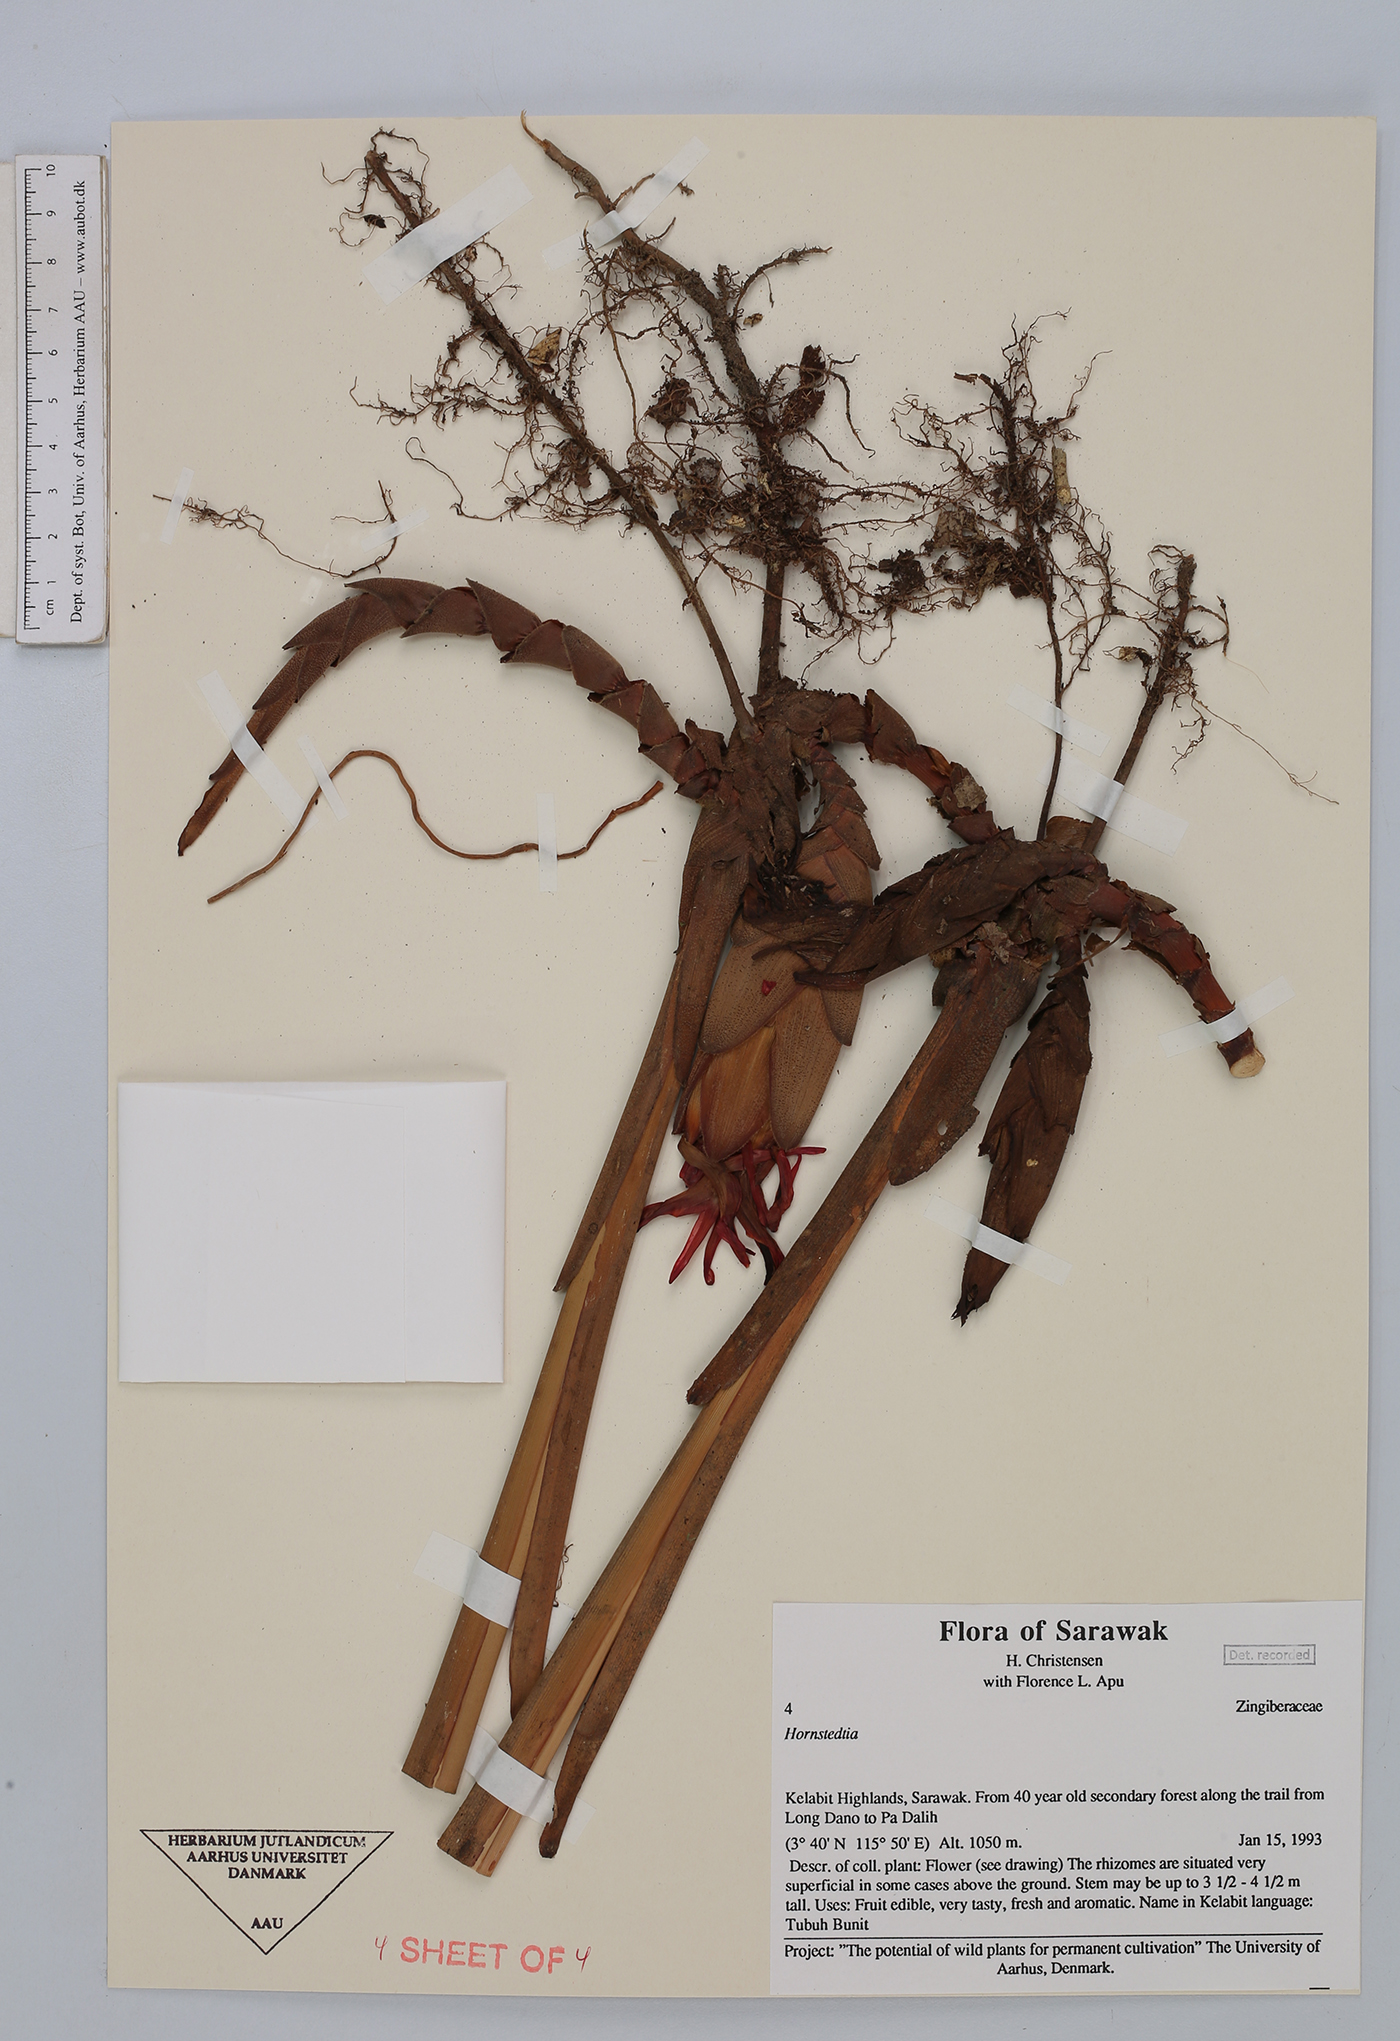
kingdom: Plantae
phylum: Tracheophyta
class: Liliopsida
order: Zingiberales
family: Zingiberaceae
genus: Hornstedtia
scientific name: Hornstedtia
